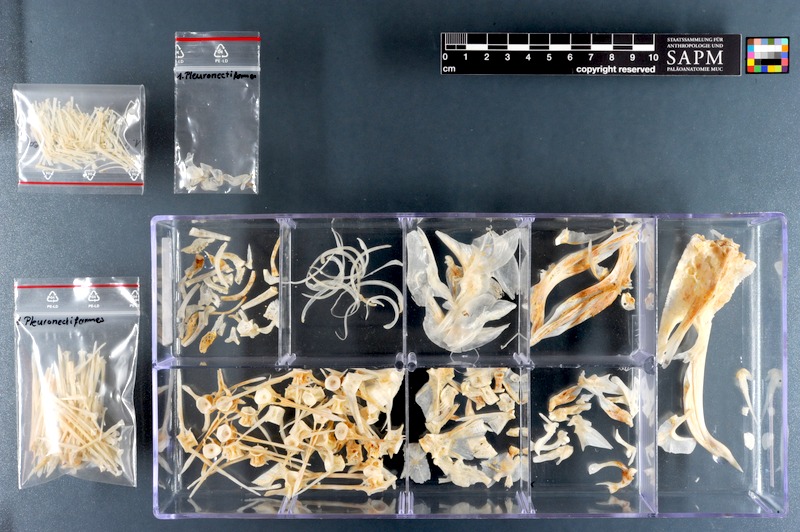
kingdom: Animalia
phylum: Chordata
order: Pleuronectiformes
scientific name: Pleuronectiformes
